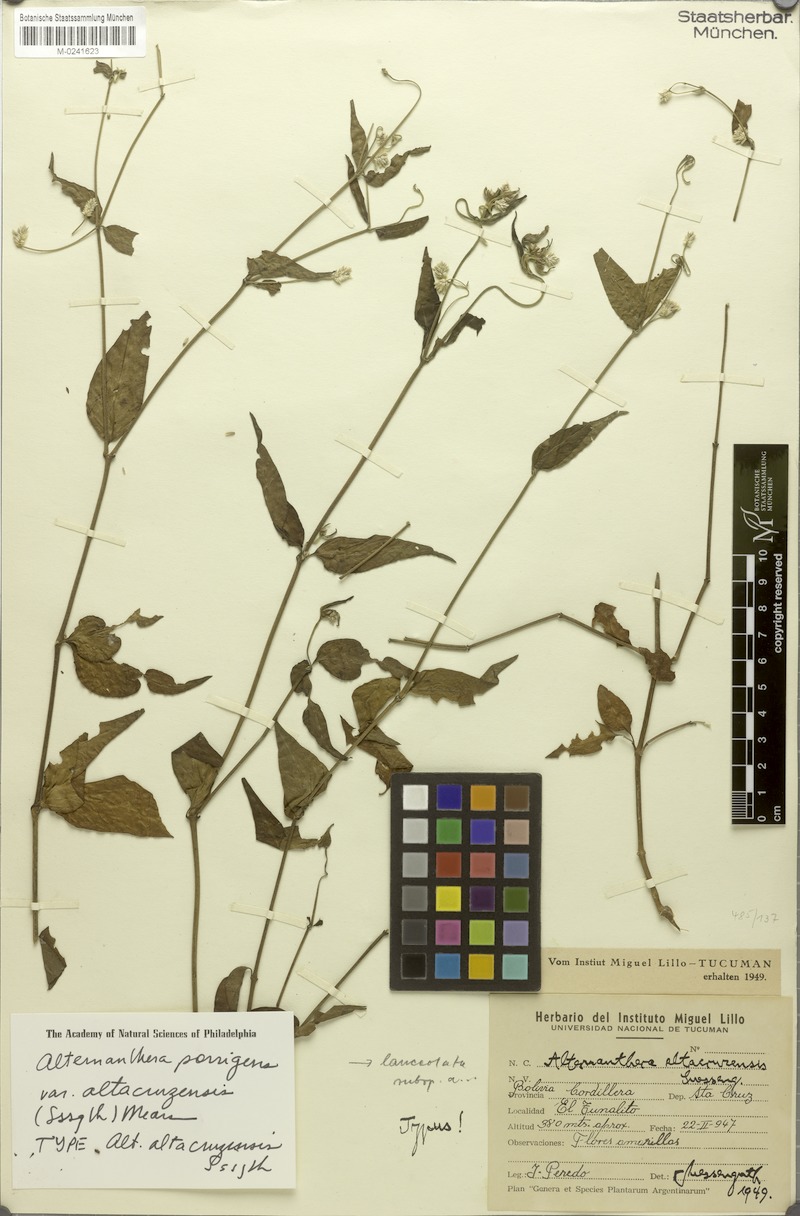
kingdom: Plantae
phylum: Tracheophyta
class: Magnoliopsida
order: Caryophyllales
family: Amaranthaceae
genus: Alternanthera
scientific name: Alternanthera altacruzensis
